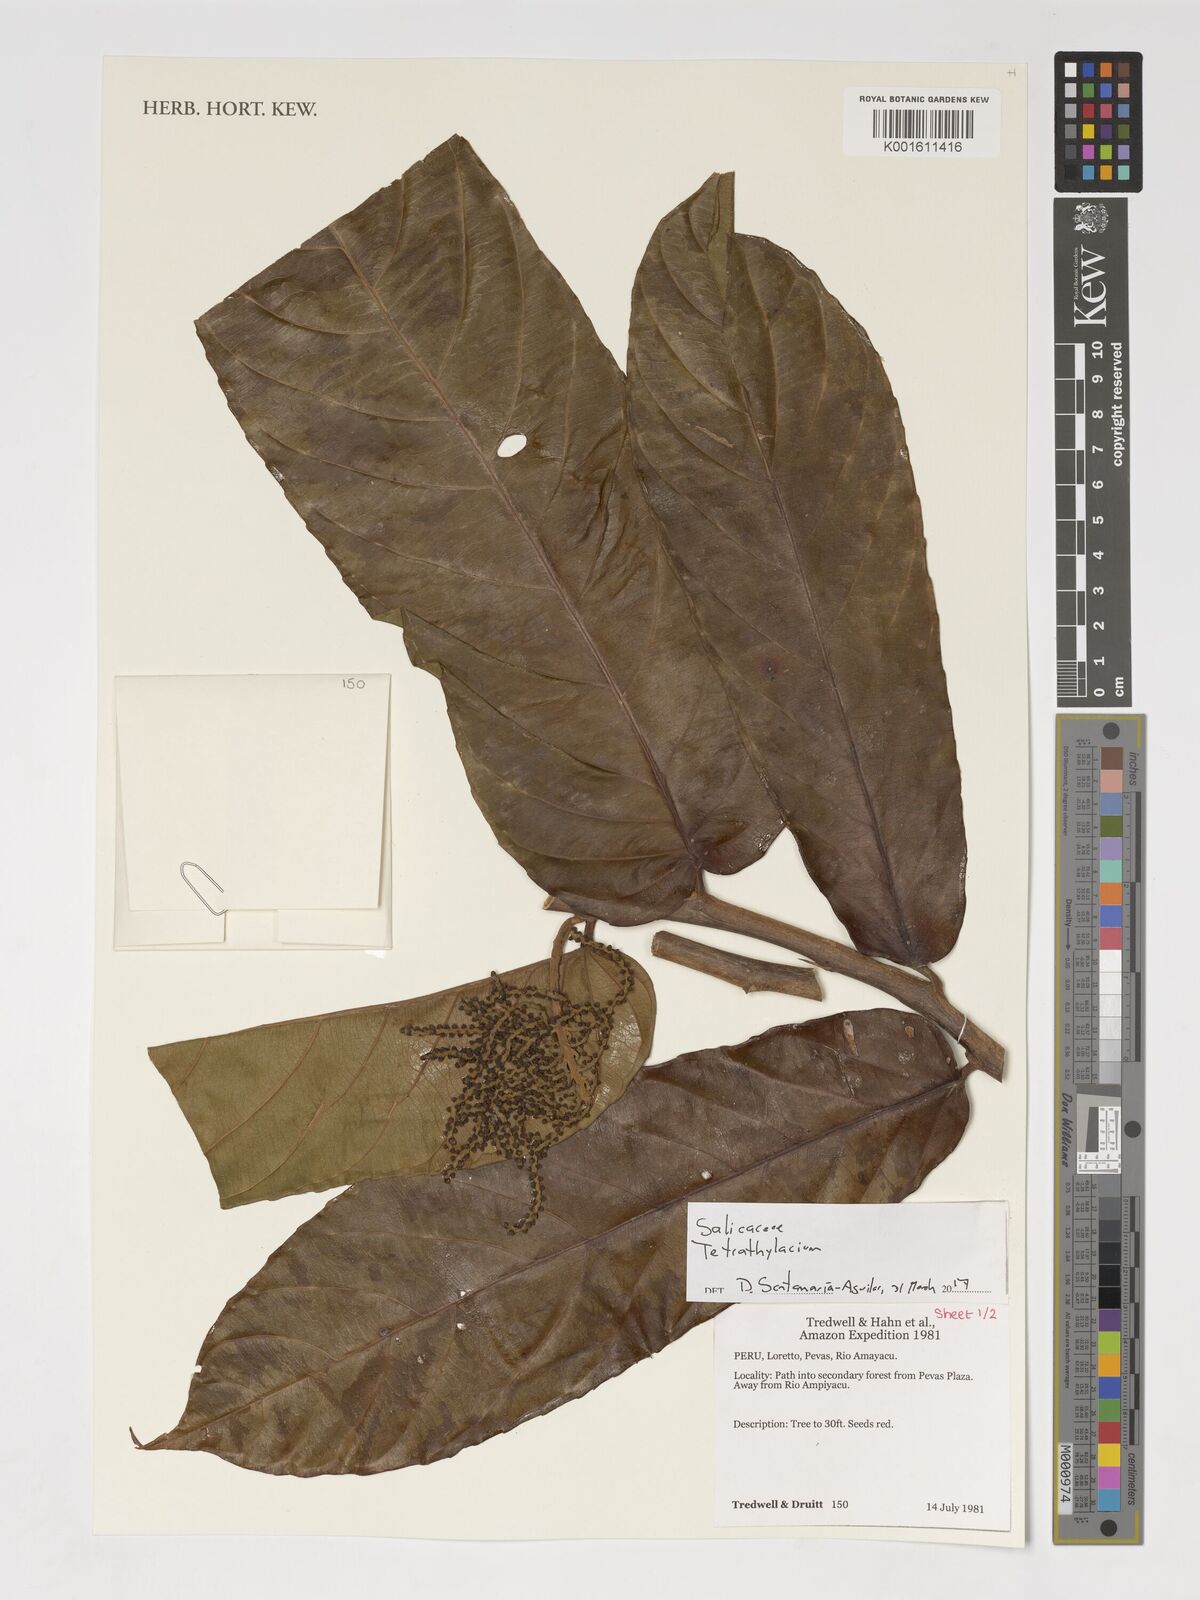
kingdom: Plantae
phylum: Tracheophyta
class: Magnoliopsida
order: Malpighiales
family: Salicaceae
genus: Tetrathylacium
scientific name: Tetrathylacium
